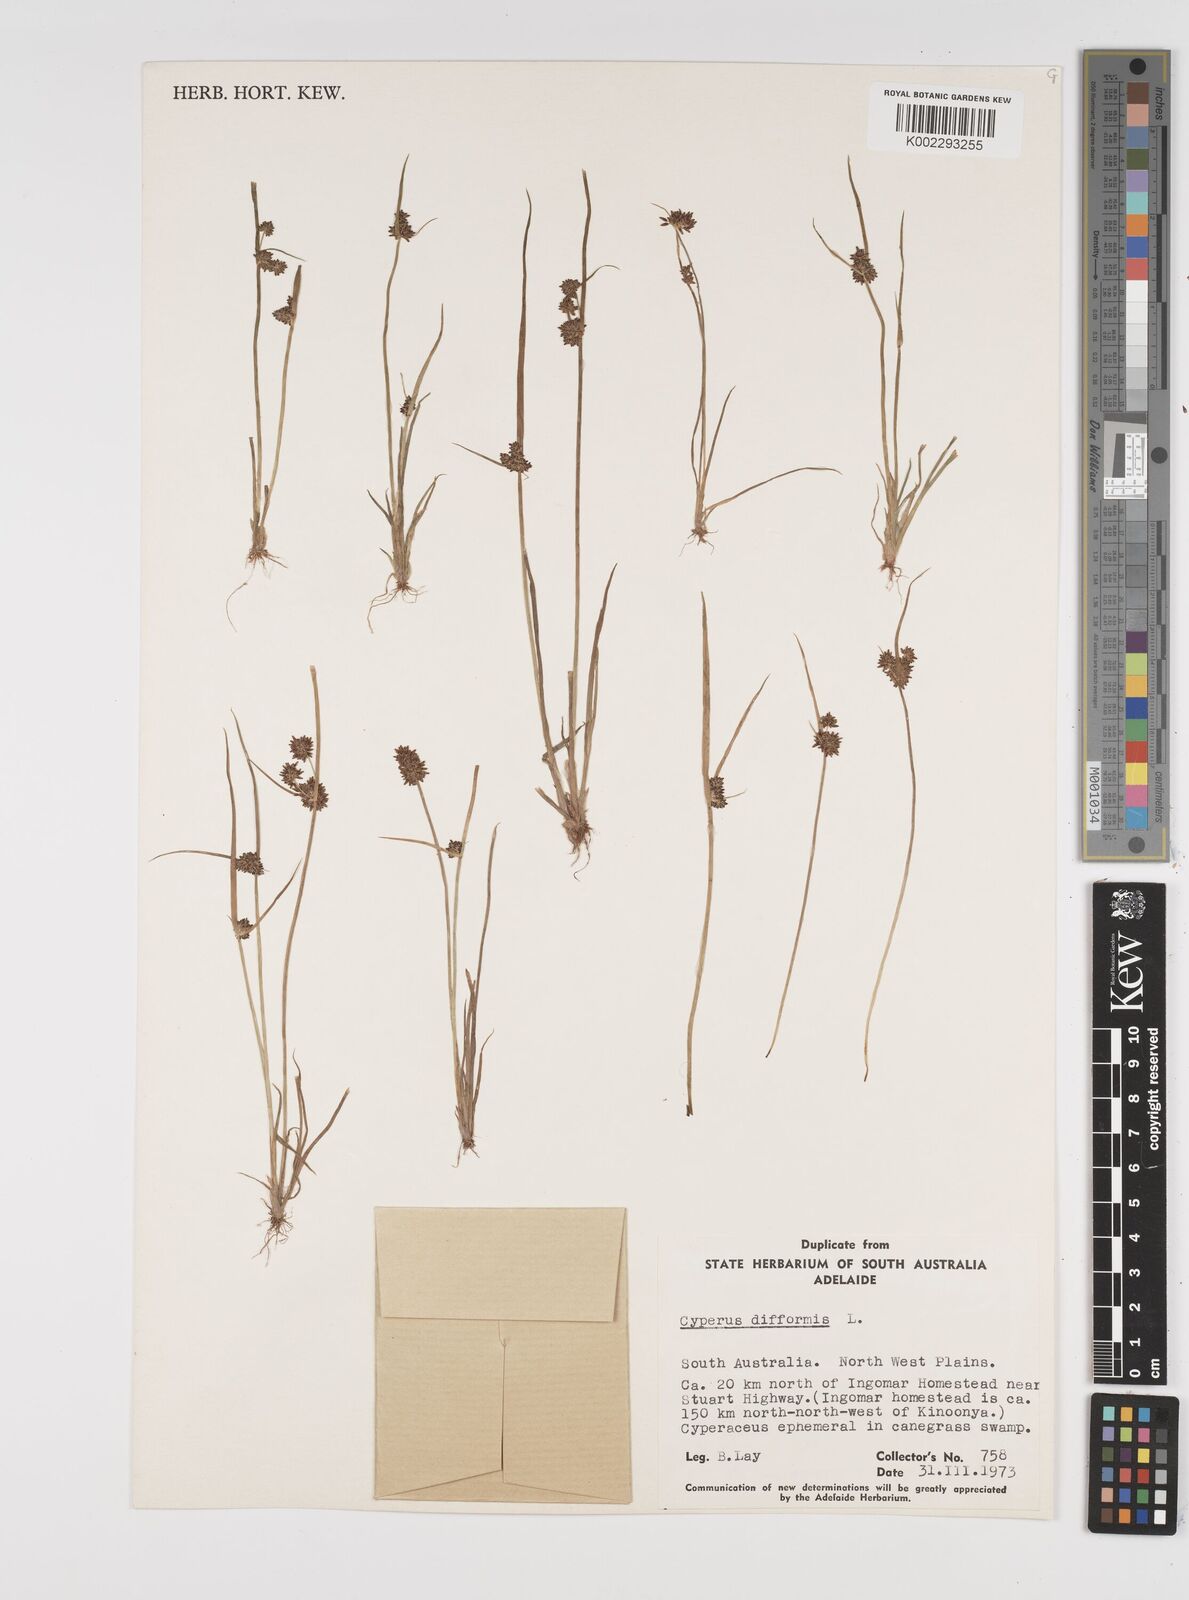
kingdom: Plantae
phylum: Tracheophyta
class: Liliopsida
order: Poales
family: Cyperaceae
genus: Cyperus
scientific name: Cyperus difformis
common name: Variable flatsedge
